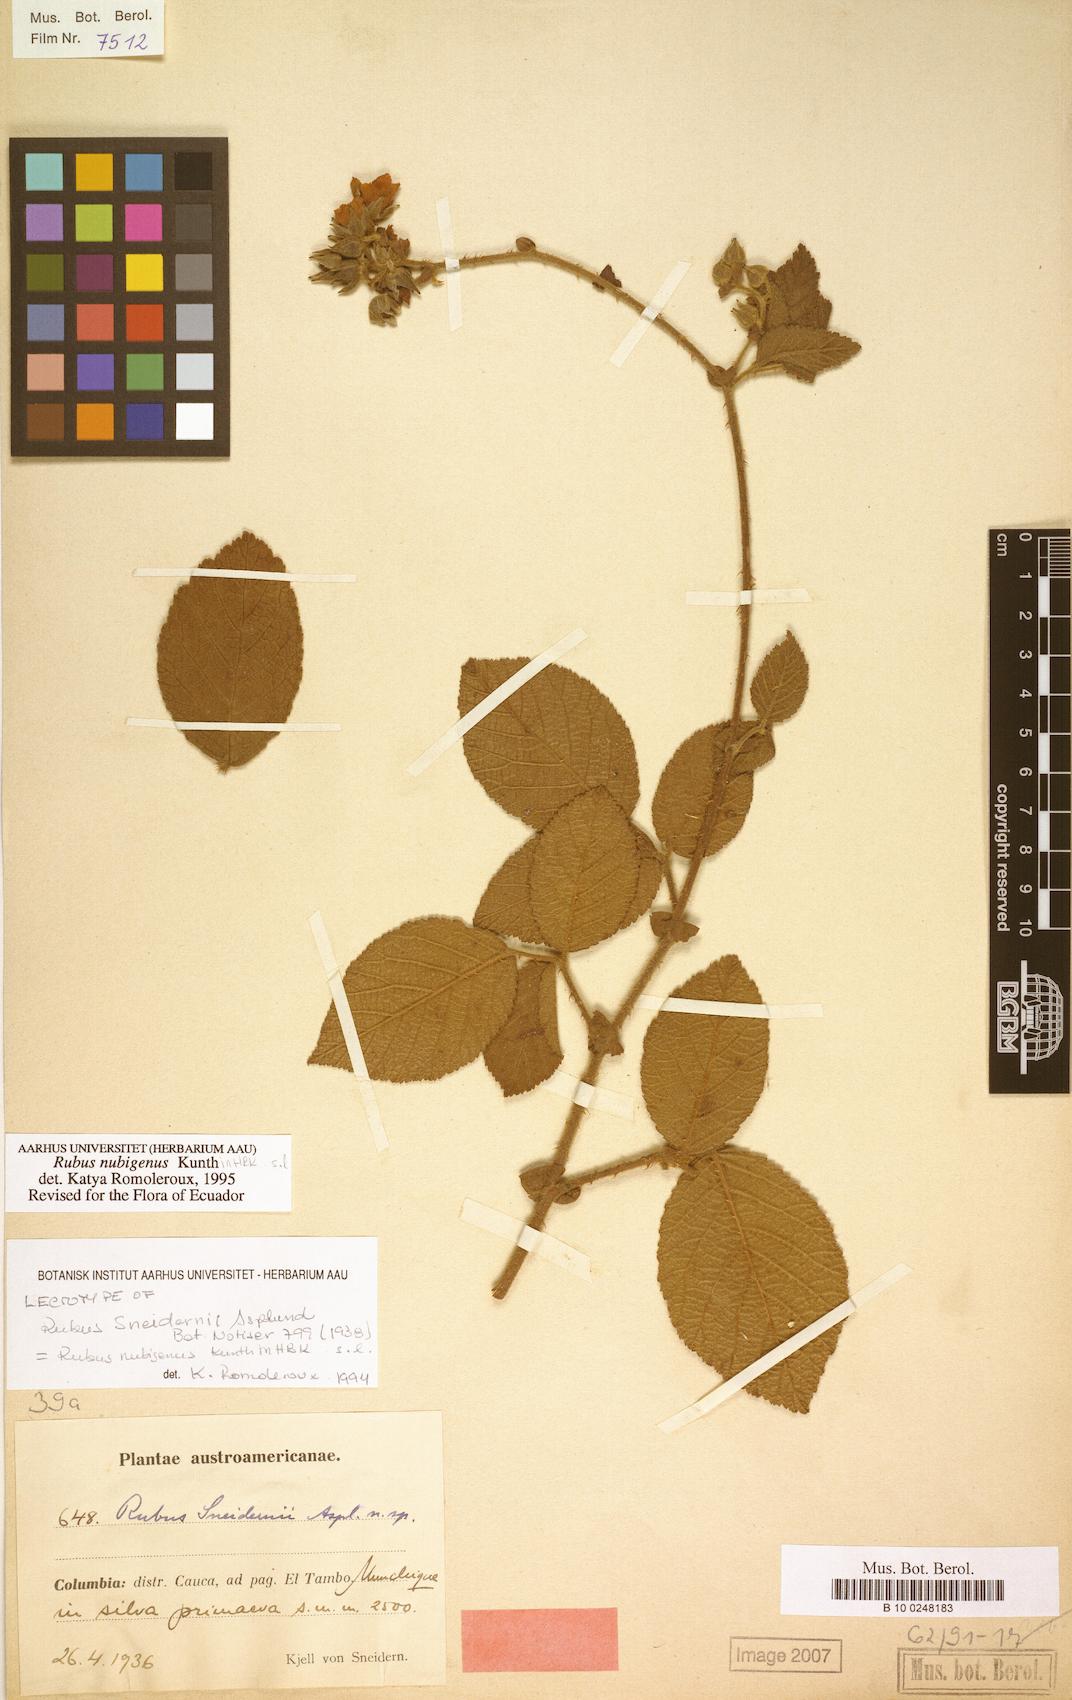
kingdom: Plantae
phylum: Tracheophyta
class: Magnoliopsida
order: Rosales
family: Rosaceae
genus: Rubus
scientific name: Rubus nubigenus
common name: Giant colombian blackberry
